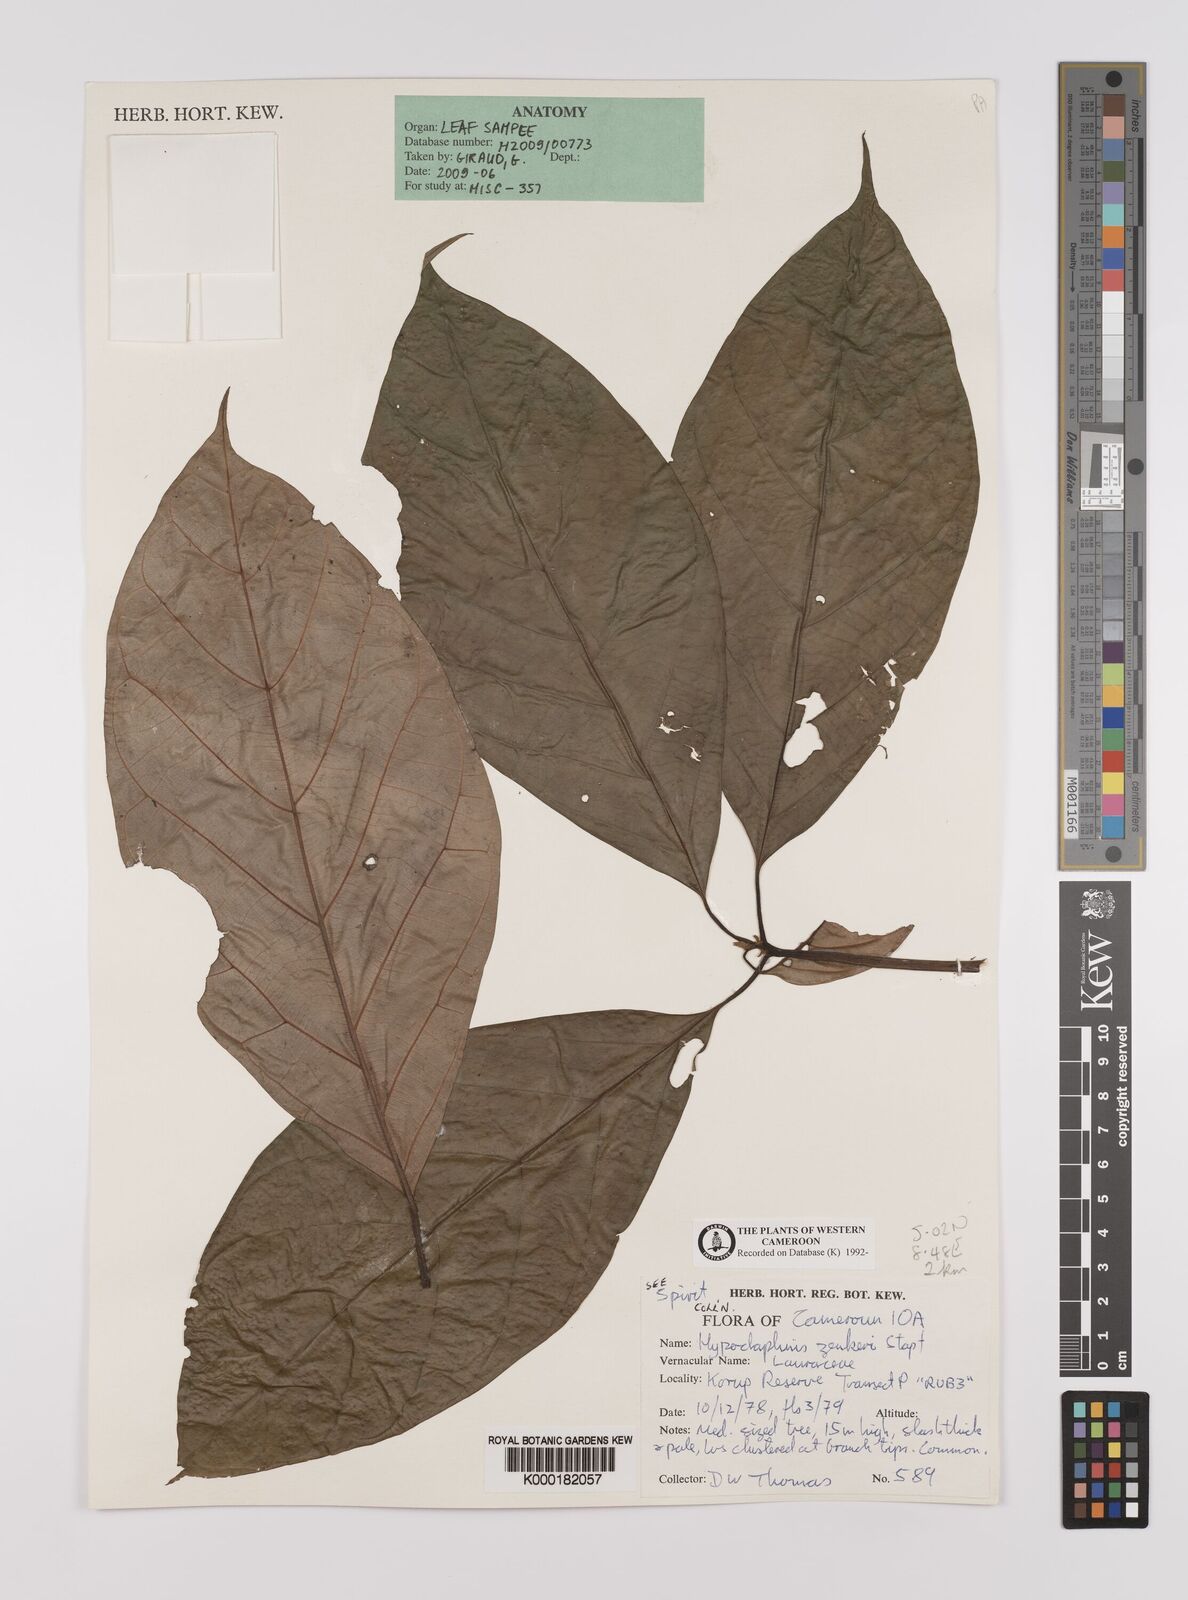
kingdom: Plantae
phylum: Tracheophyta
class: Magnoliopsida
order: Laurales
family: Lauraceae
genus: Hypodaphnis
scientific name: Hypodaphnis zenkeri
